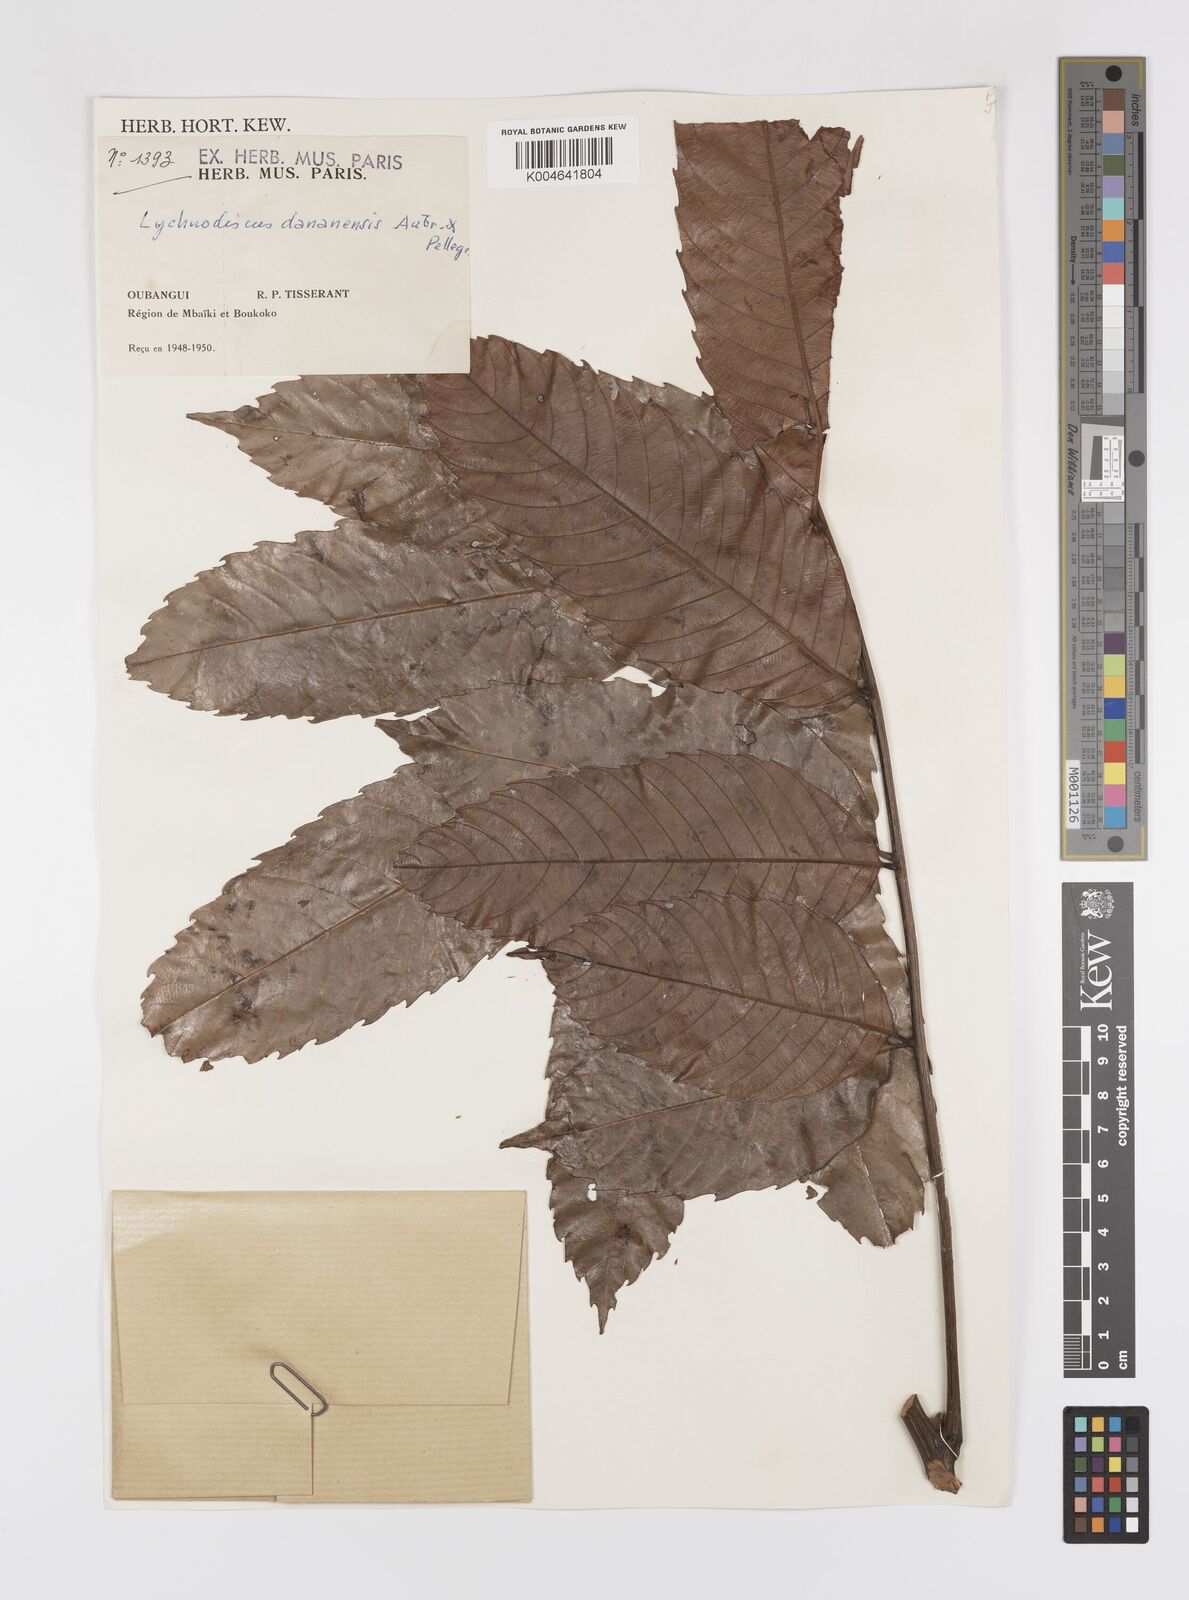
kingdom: Plantae
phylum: Tracheophyta
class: Magnoliopsida
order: Sapindales
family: Sapindaceae
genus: Lychnodiscus
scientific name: Lychnodiscus dananensis
